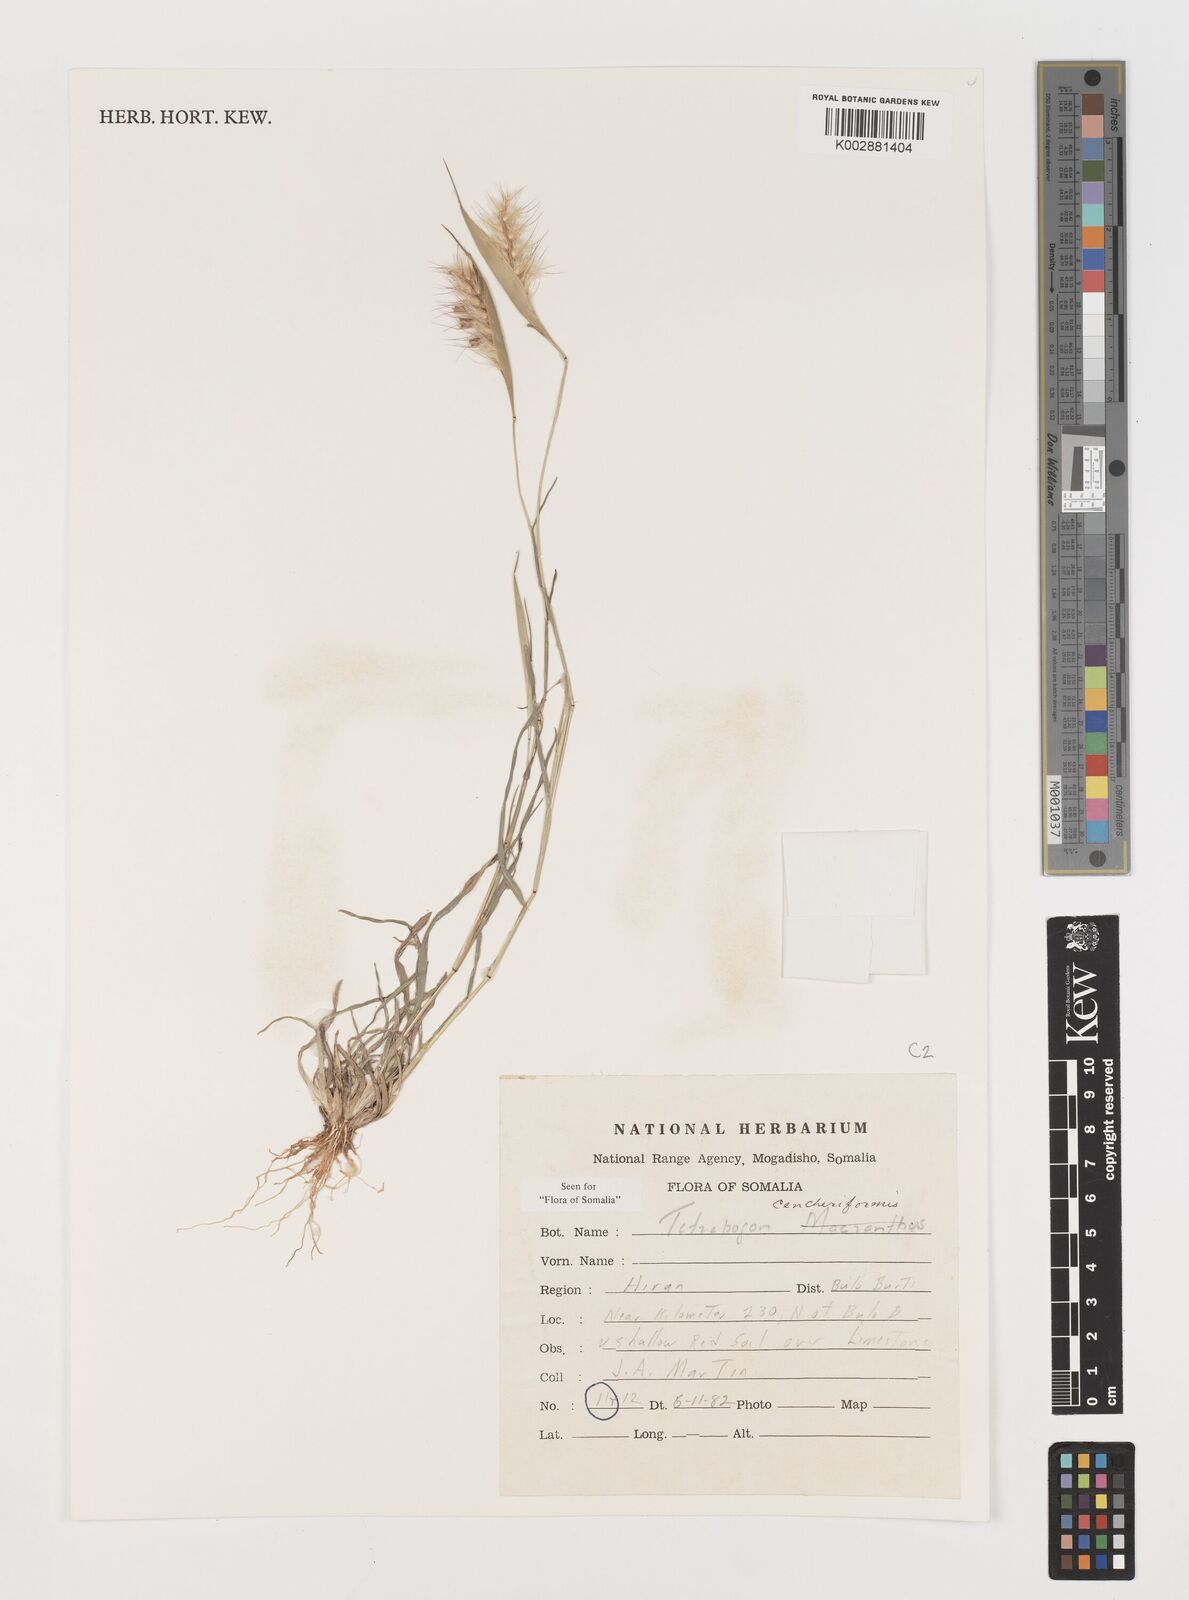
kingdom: Plantae
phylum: Tracheophyta
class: Liliopsida
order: Poales
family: Poaceae
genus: Tetrapogon
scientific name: Tetrapogon cenchriformis
